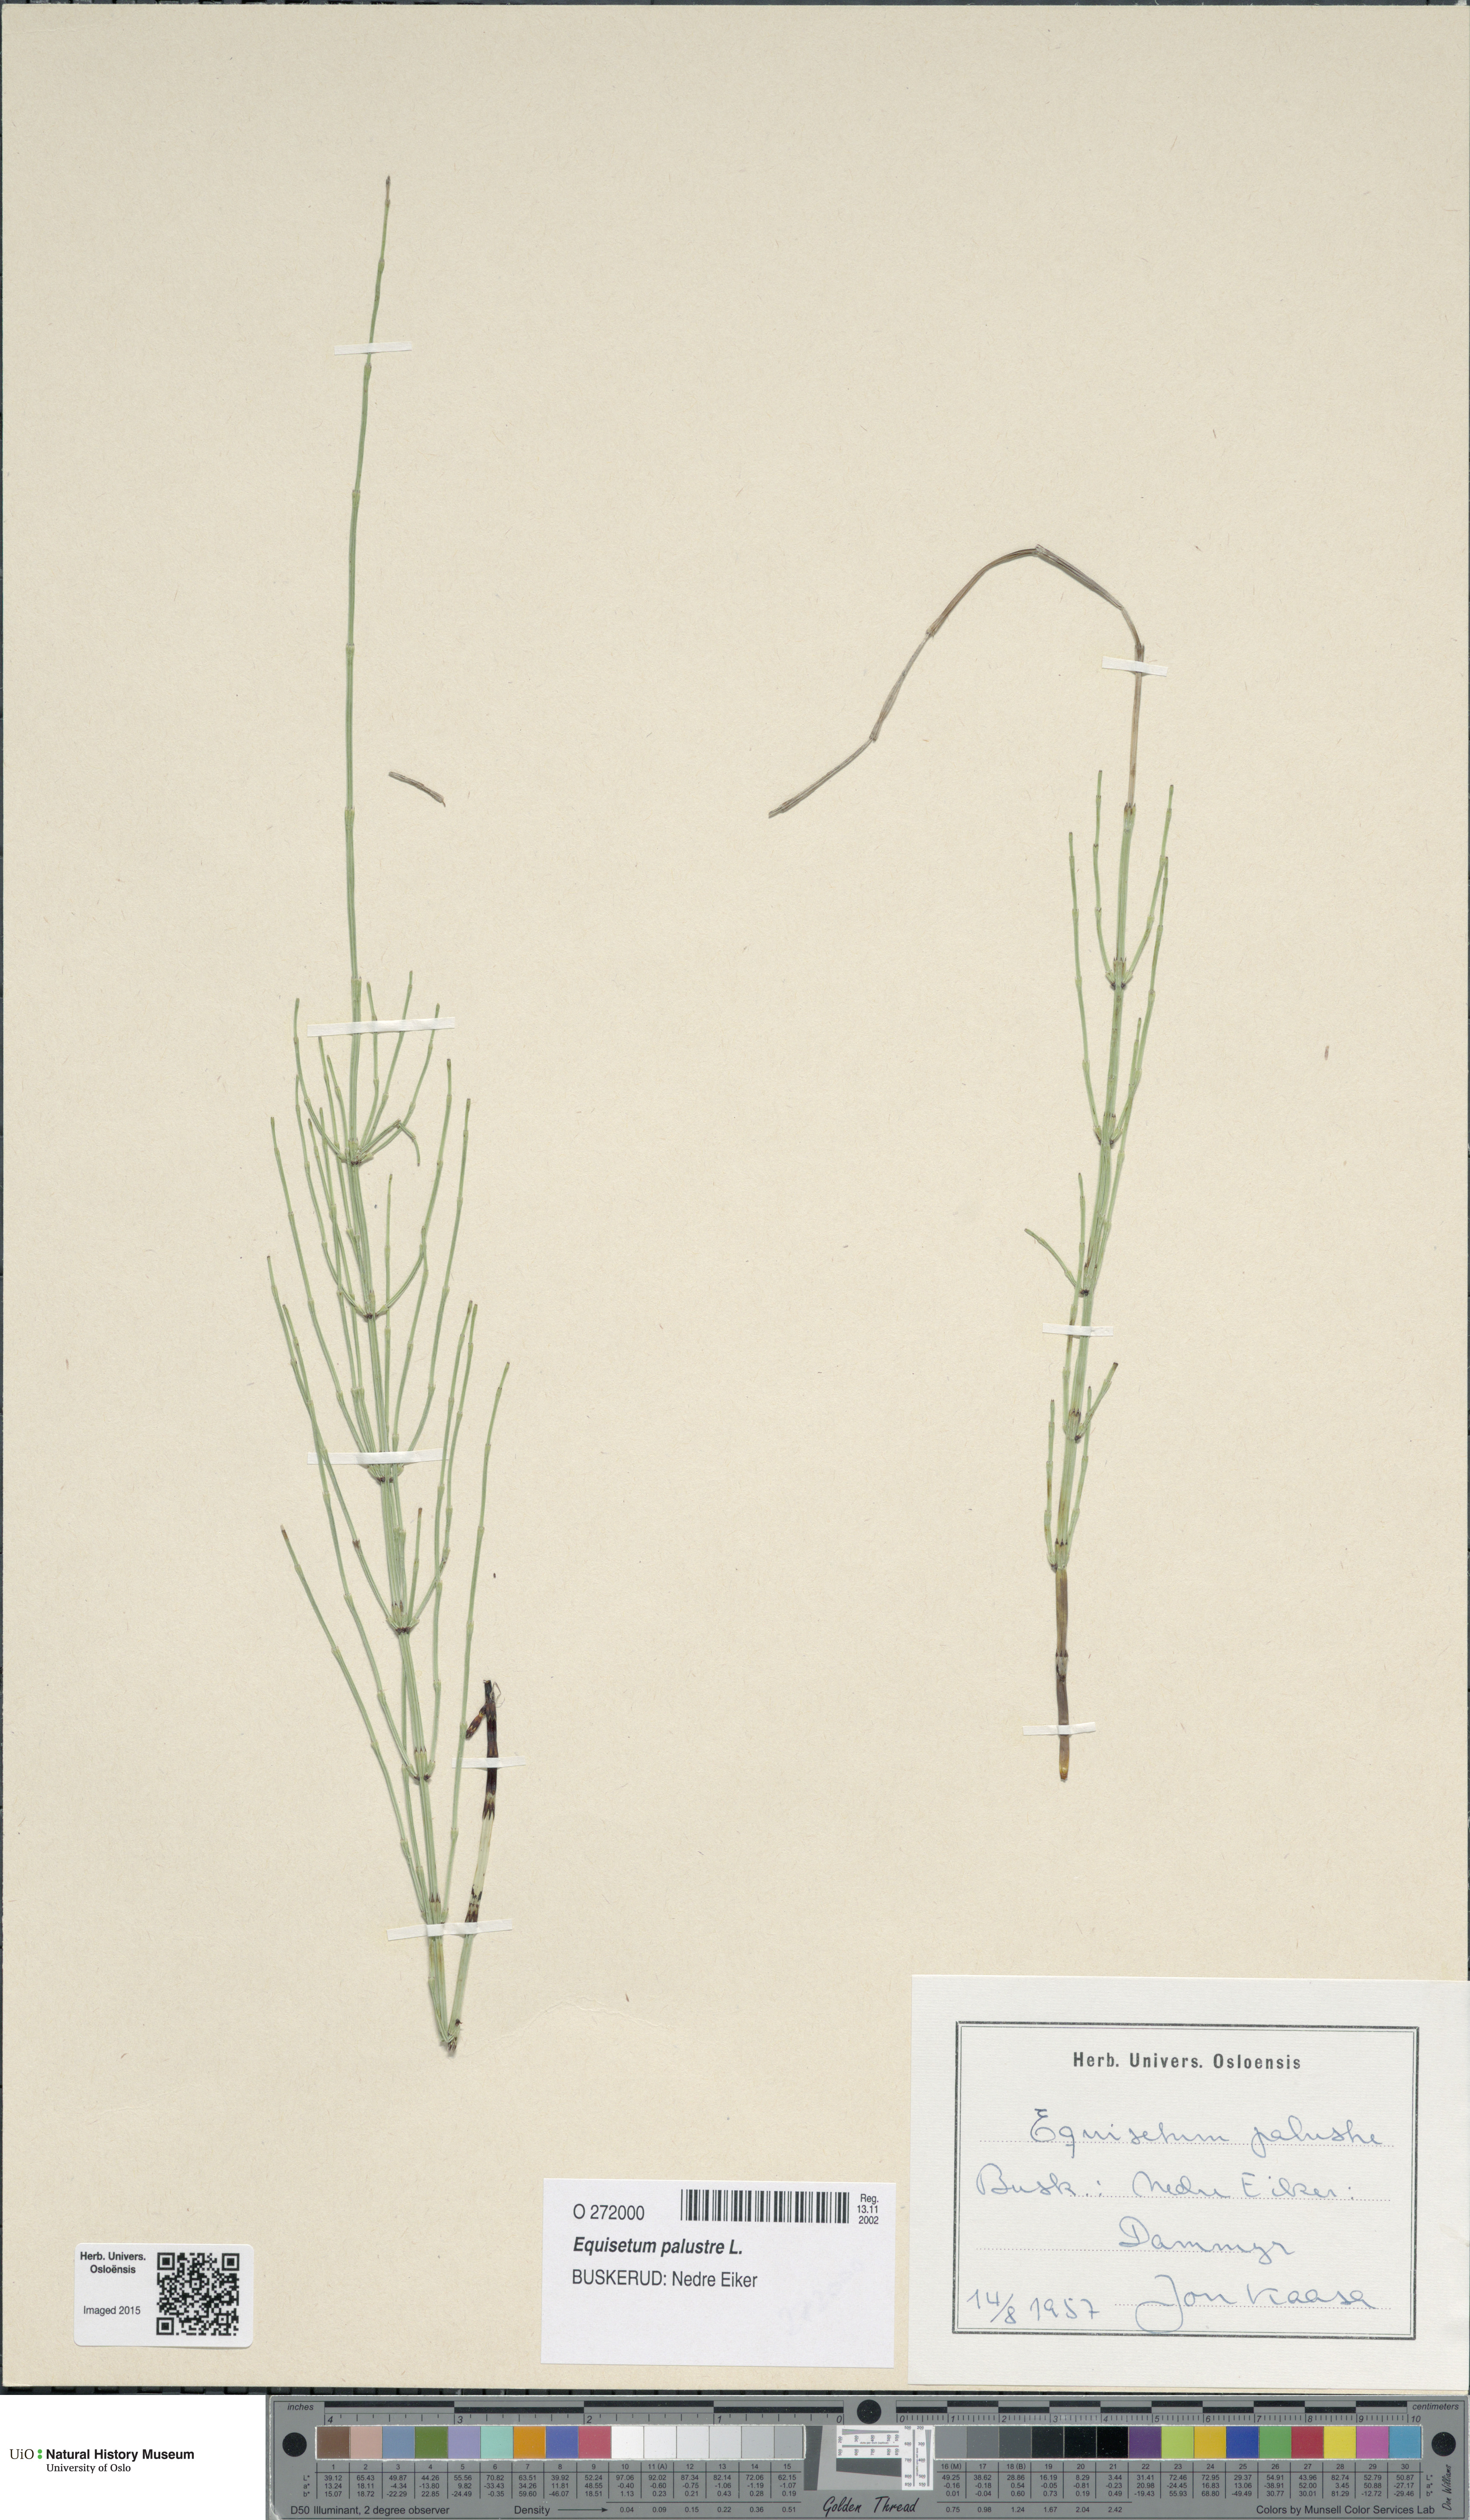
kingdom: Plantae
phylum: Tracheophyta
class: Polypodiopsida
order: Equisetales
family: Equisetaceae
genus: Equisetum
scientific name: Equisetum palustre
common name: Marsh horsetail
